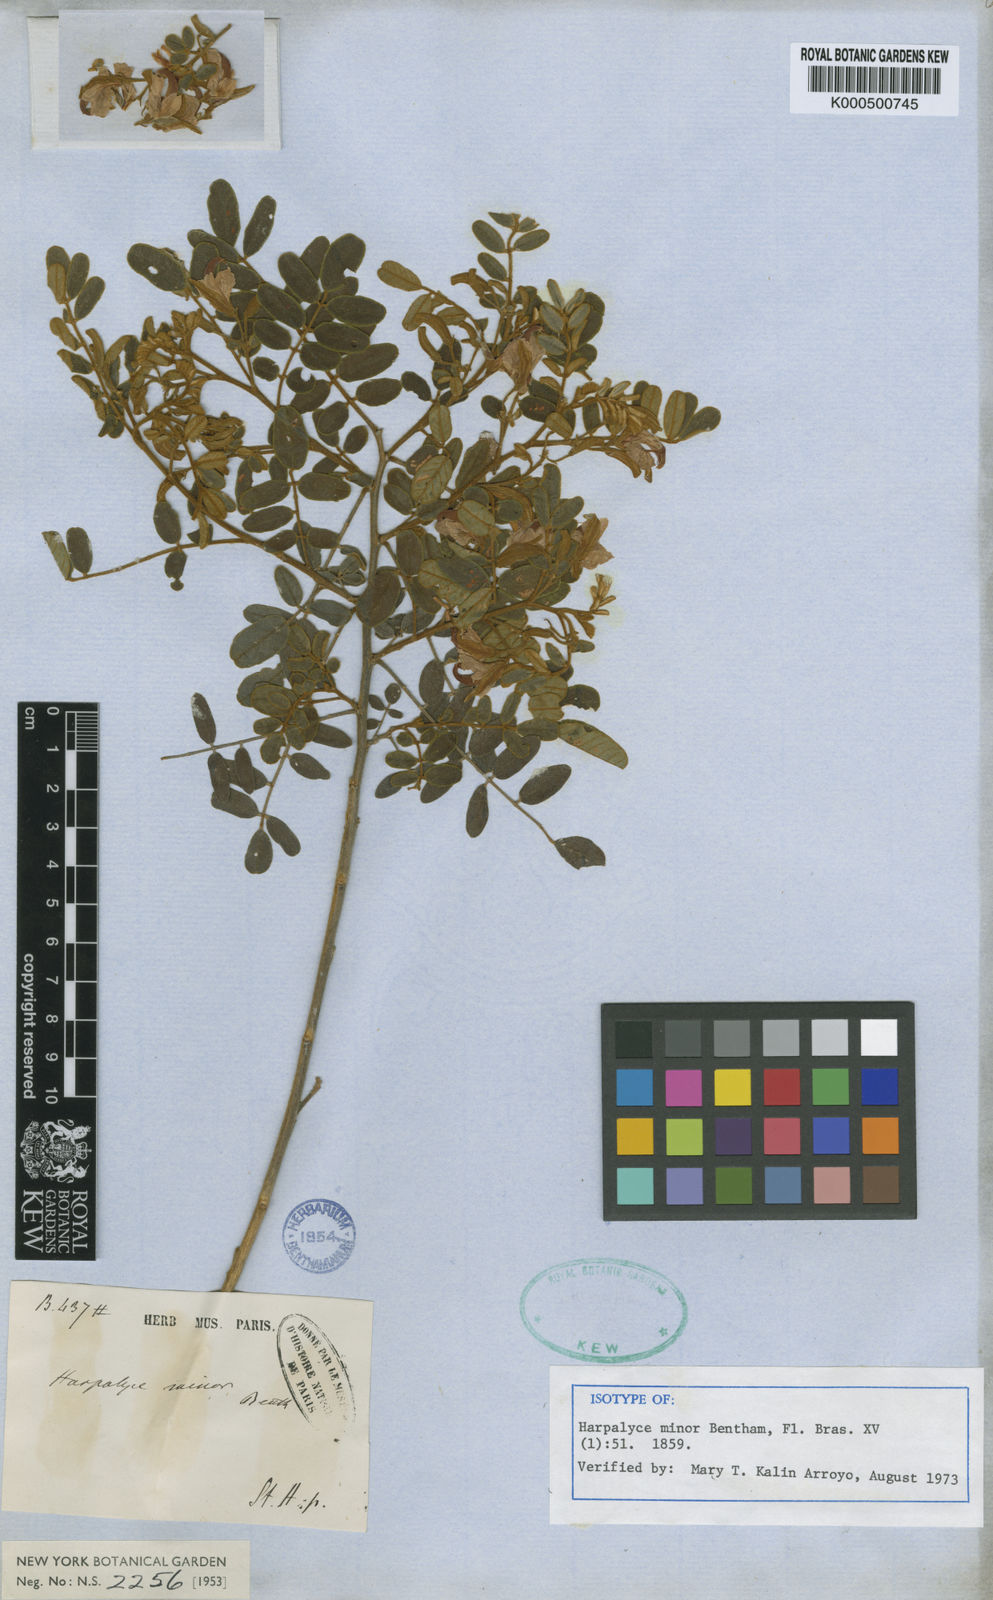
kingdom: Plantae
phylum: Tracheophyta
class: Magnoliopsida
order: Fabales
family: Fabaceae
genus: Harpalyce
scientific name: Harpalyce minor
